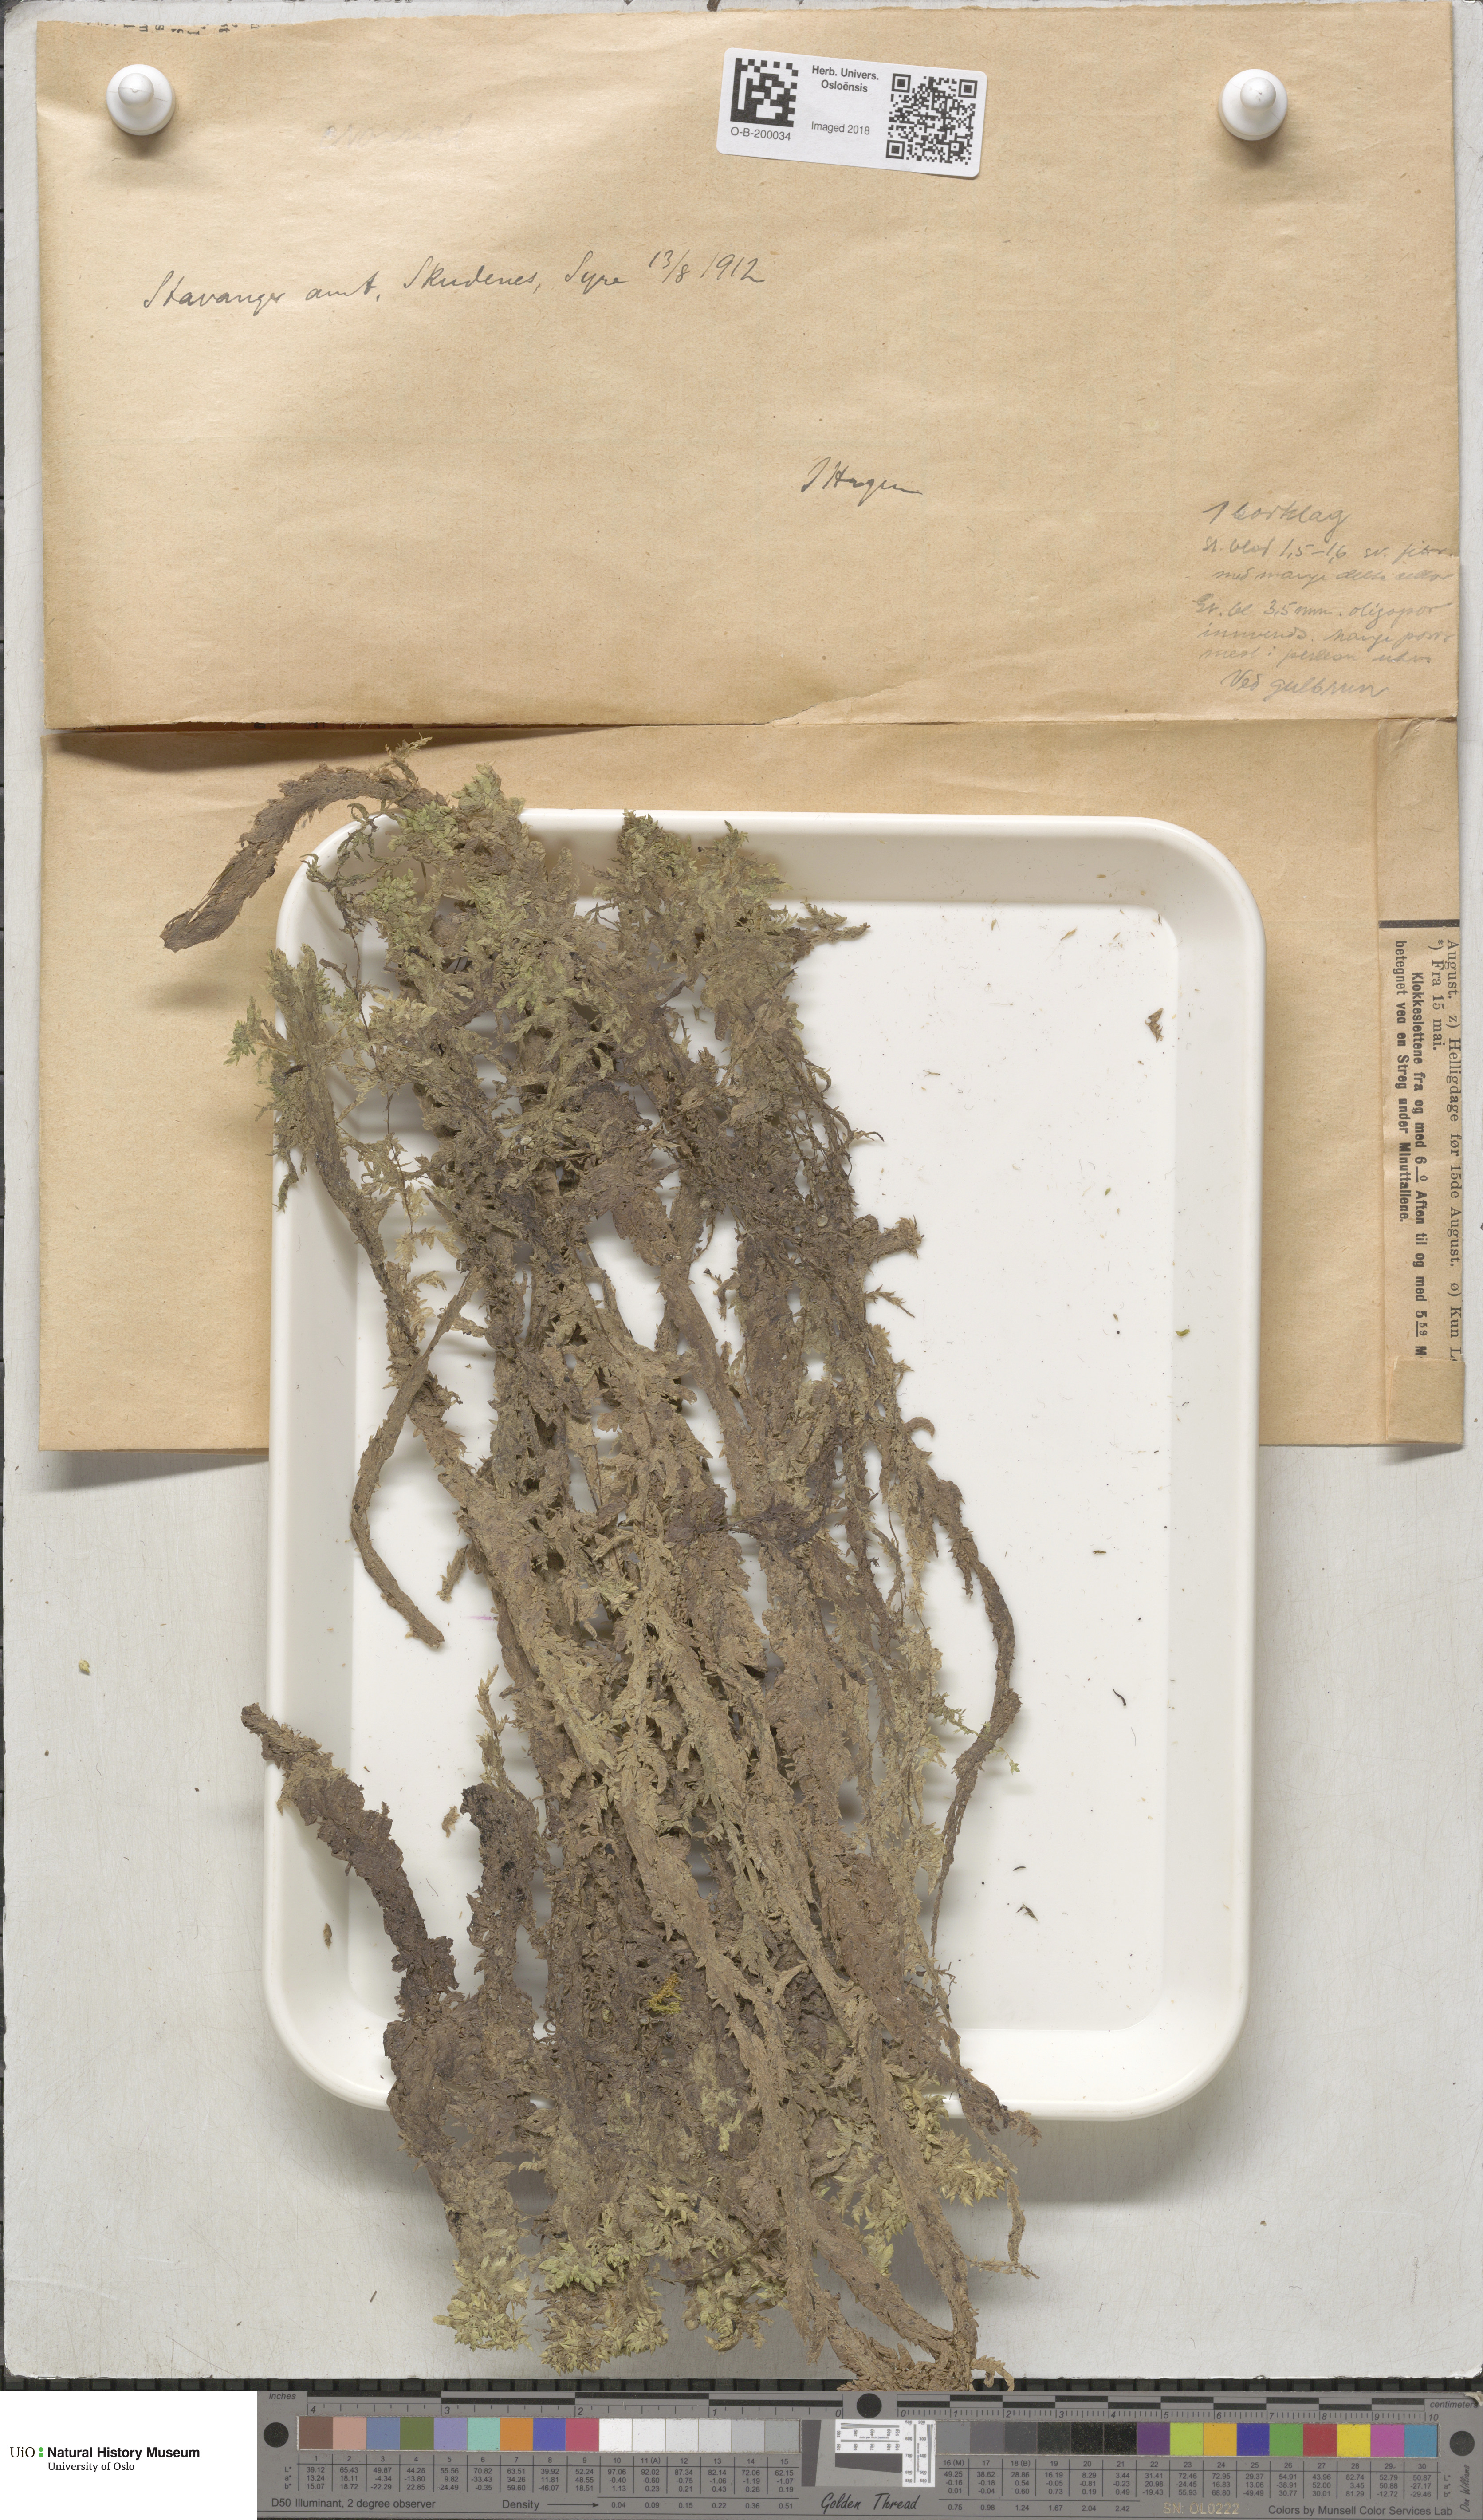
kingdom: Plantae
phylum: Bryophyta
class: Sphagnopsida
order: Sphagnales
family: Sphagnaceae
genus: Sphagnum
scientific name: Sphagnum denticulatum
